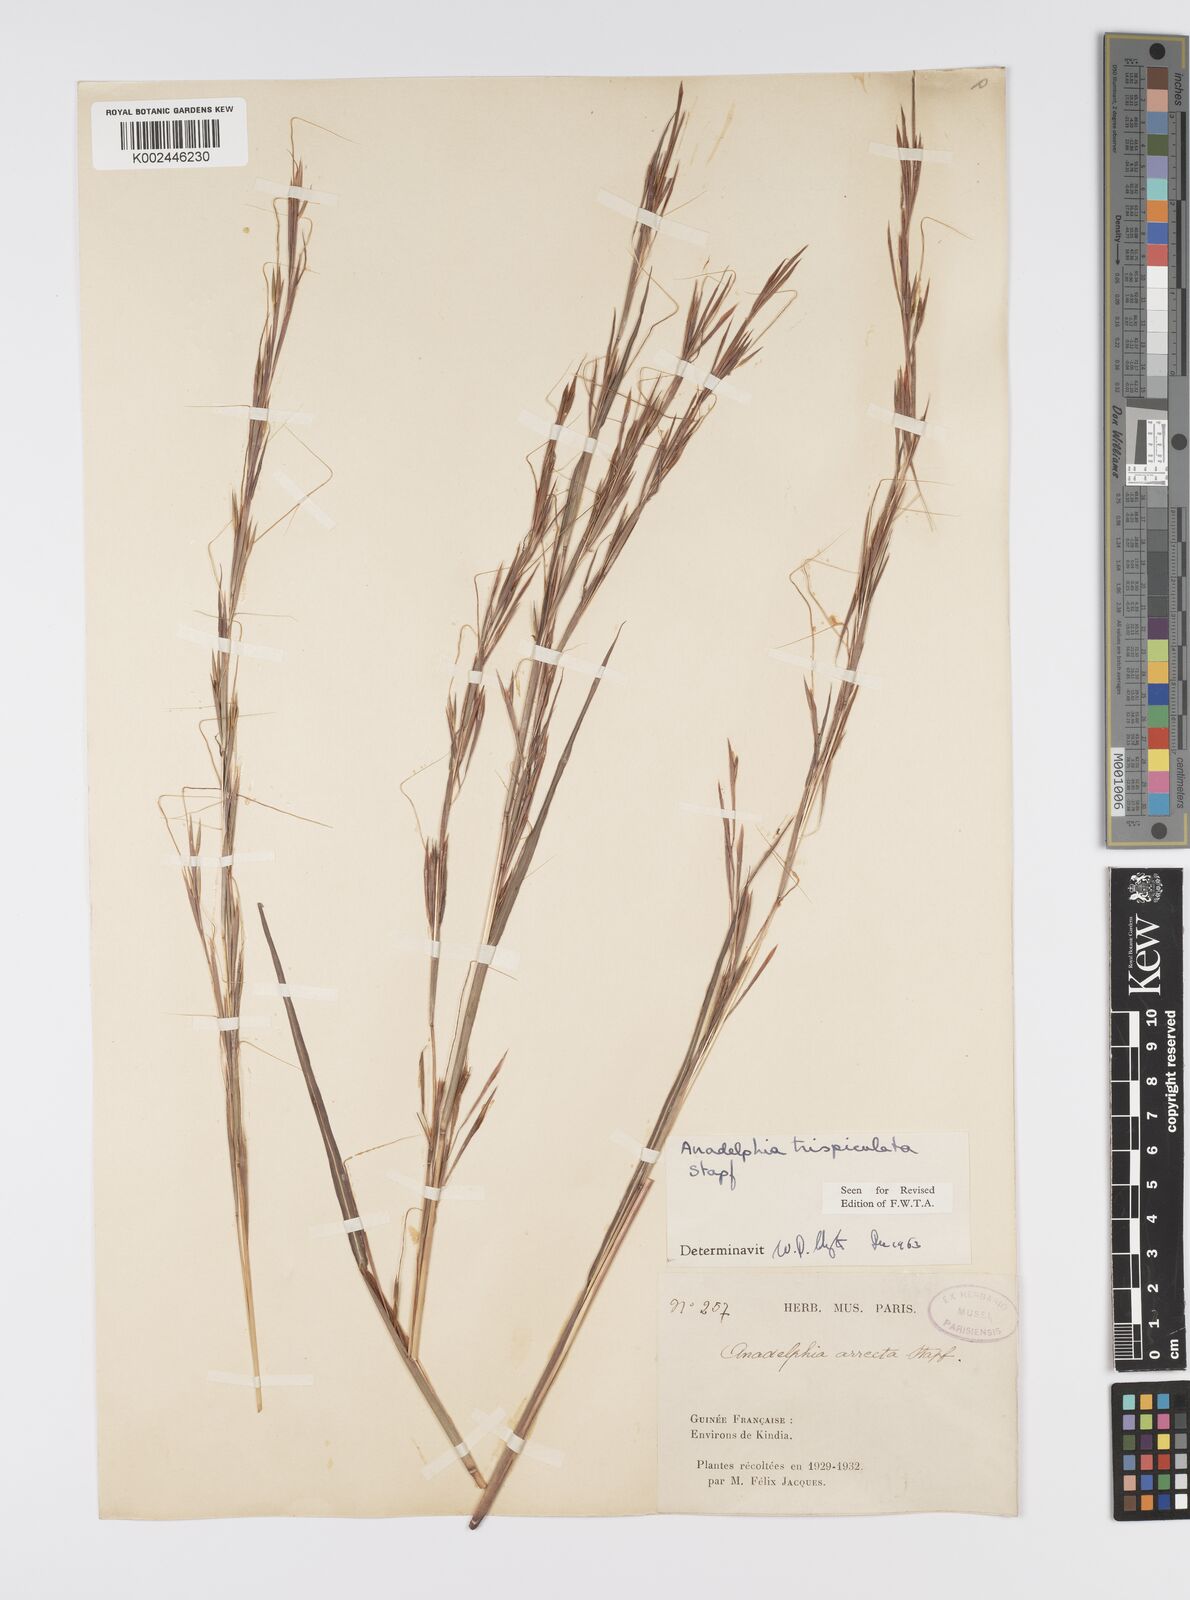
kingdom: Plantae
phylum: Tracheophyta
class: Liliopsida
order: Poales
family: Poaceae
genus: Anadelphia
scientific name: Anadelphia trispiculata
